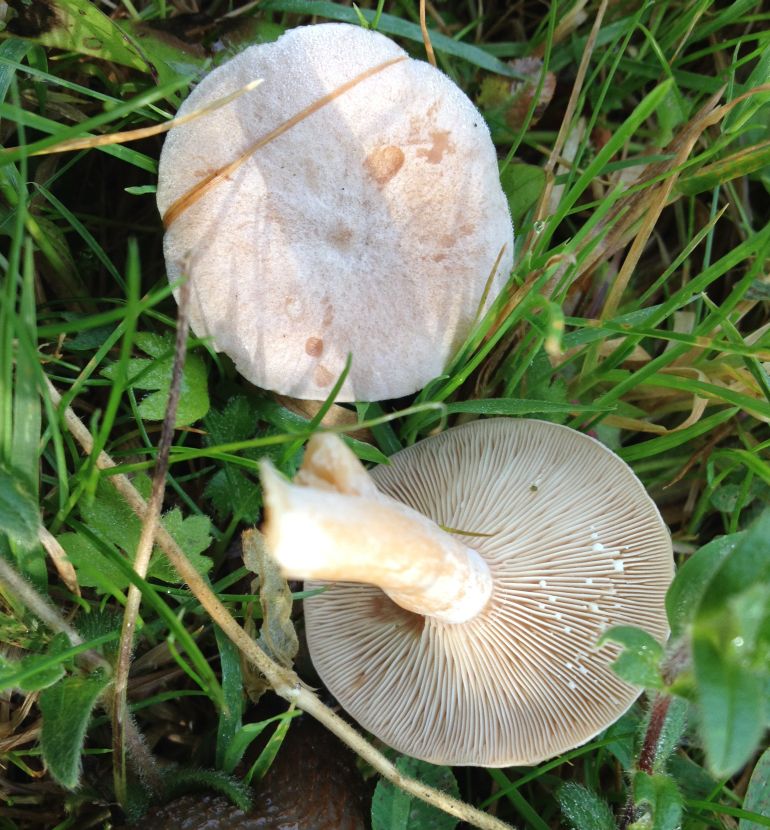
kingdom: Fungi
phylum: Basidiomycota
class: Agaricomycetes
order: Russulales
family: Russulaceae
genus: Lactarius
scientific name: Lactarius glyciosmus
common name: kokos-mælkehat
